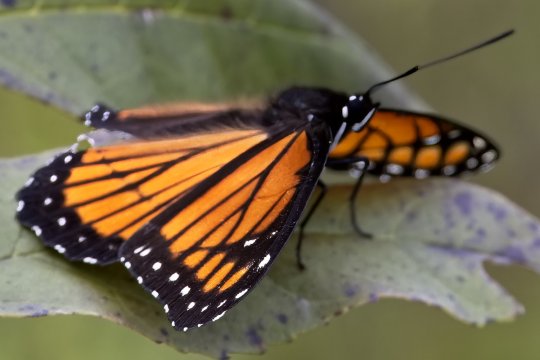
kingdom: Animalia
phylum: Arthropoda
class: Insecta
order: Lepidoptera
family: Nymphalidae
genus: Limenitis
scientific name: Limenitis archippus
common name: Viceroy
